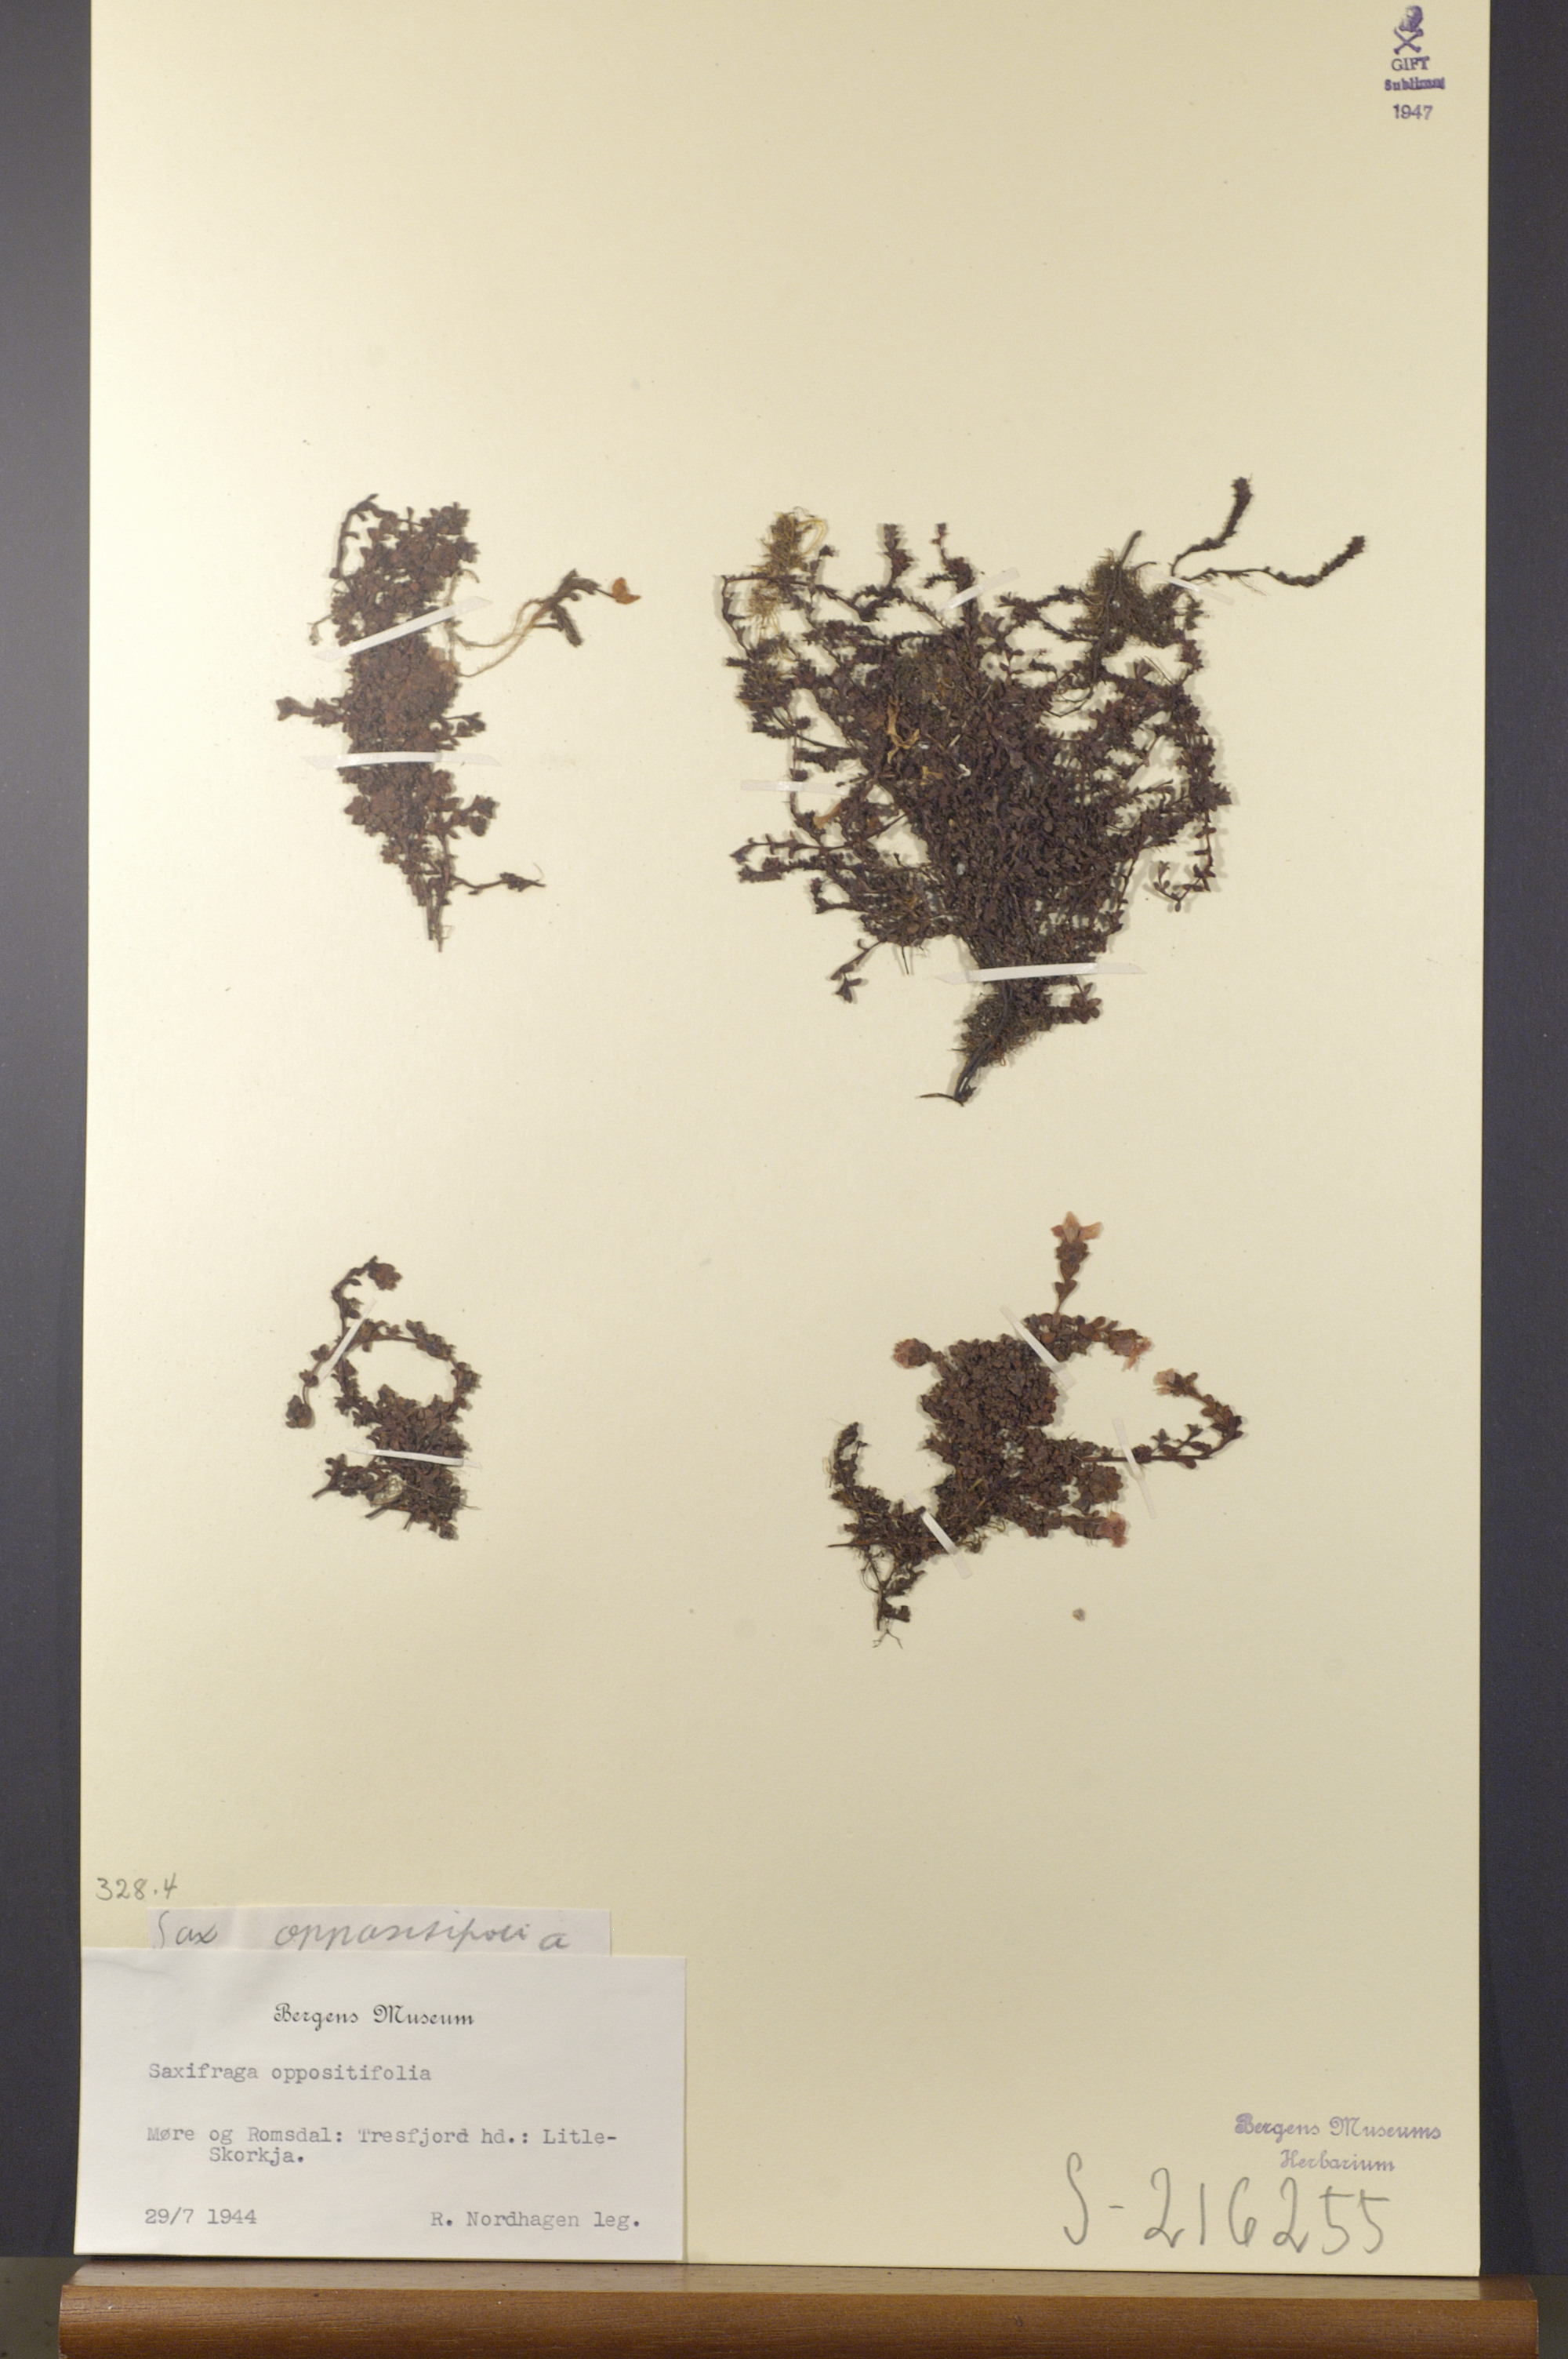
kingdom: Plantae
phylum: Tracheophyta
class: Magnoliopsida
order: Saxifragales
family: Saxifragaceae
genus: Saxifraga
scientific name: Saxifraga oppositifolia
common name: Purple saxifrage
